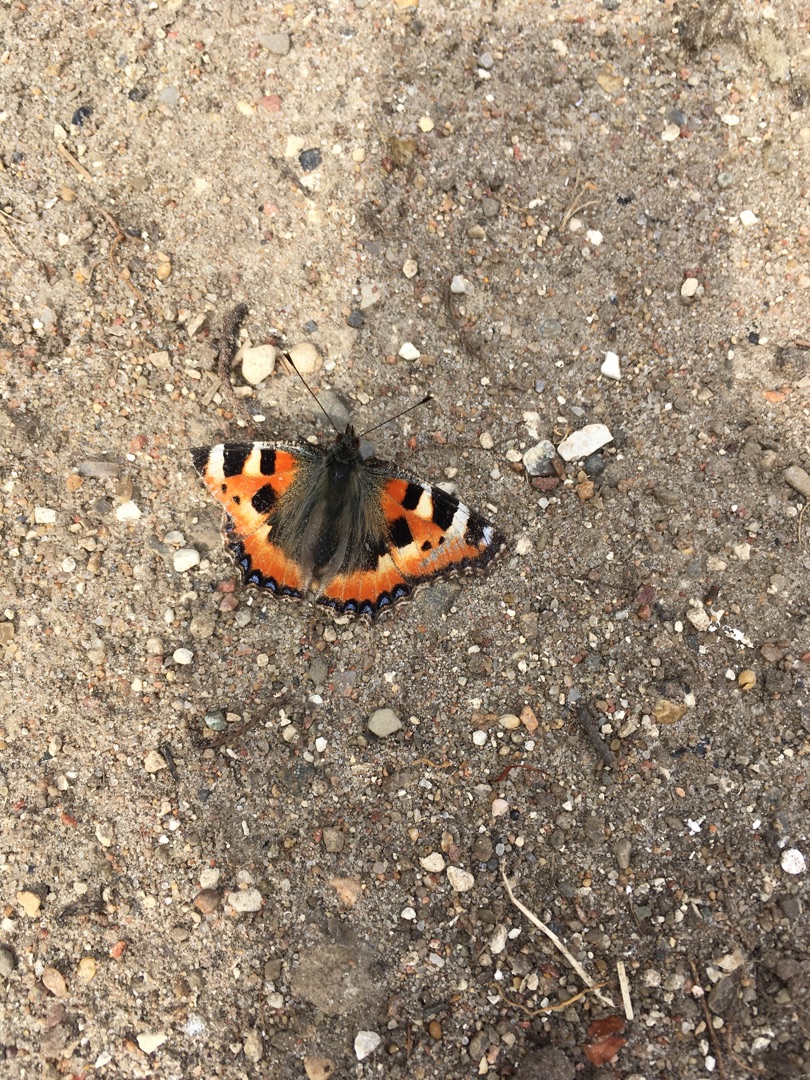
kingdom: Animalia
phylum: Arthropoda
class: Insecta
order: Lepidoptera
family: Nymphalidae
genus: Aglais
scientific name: Aglais urticae
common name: Nældens takvinge
